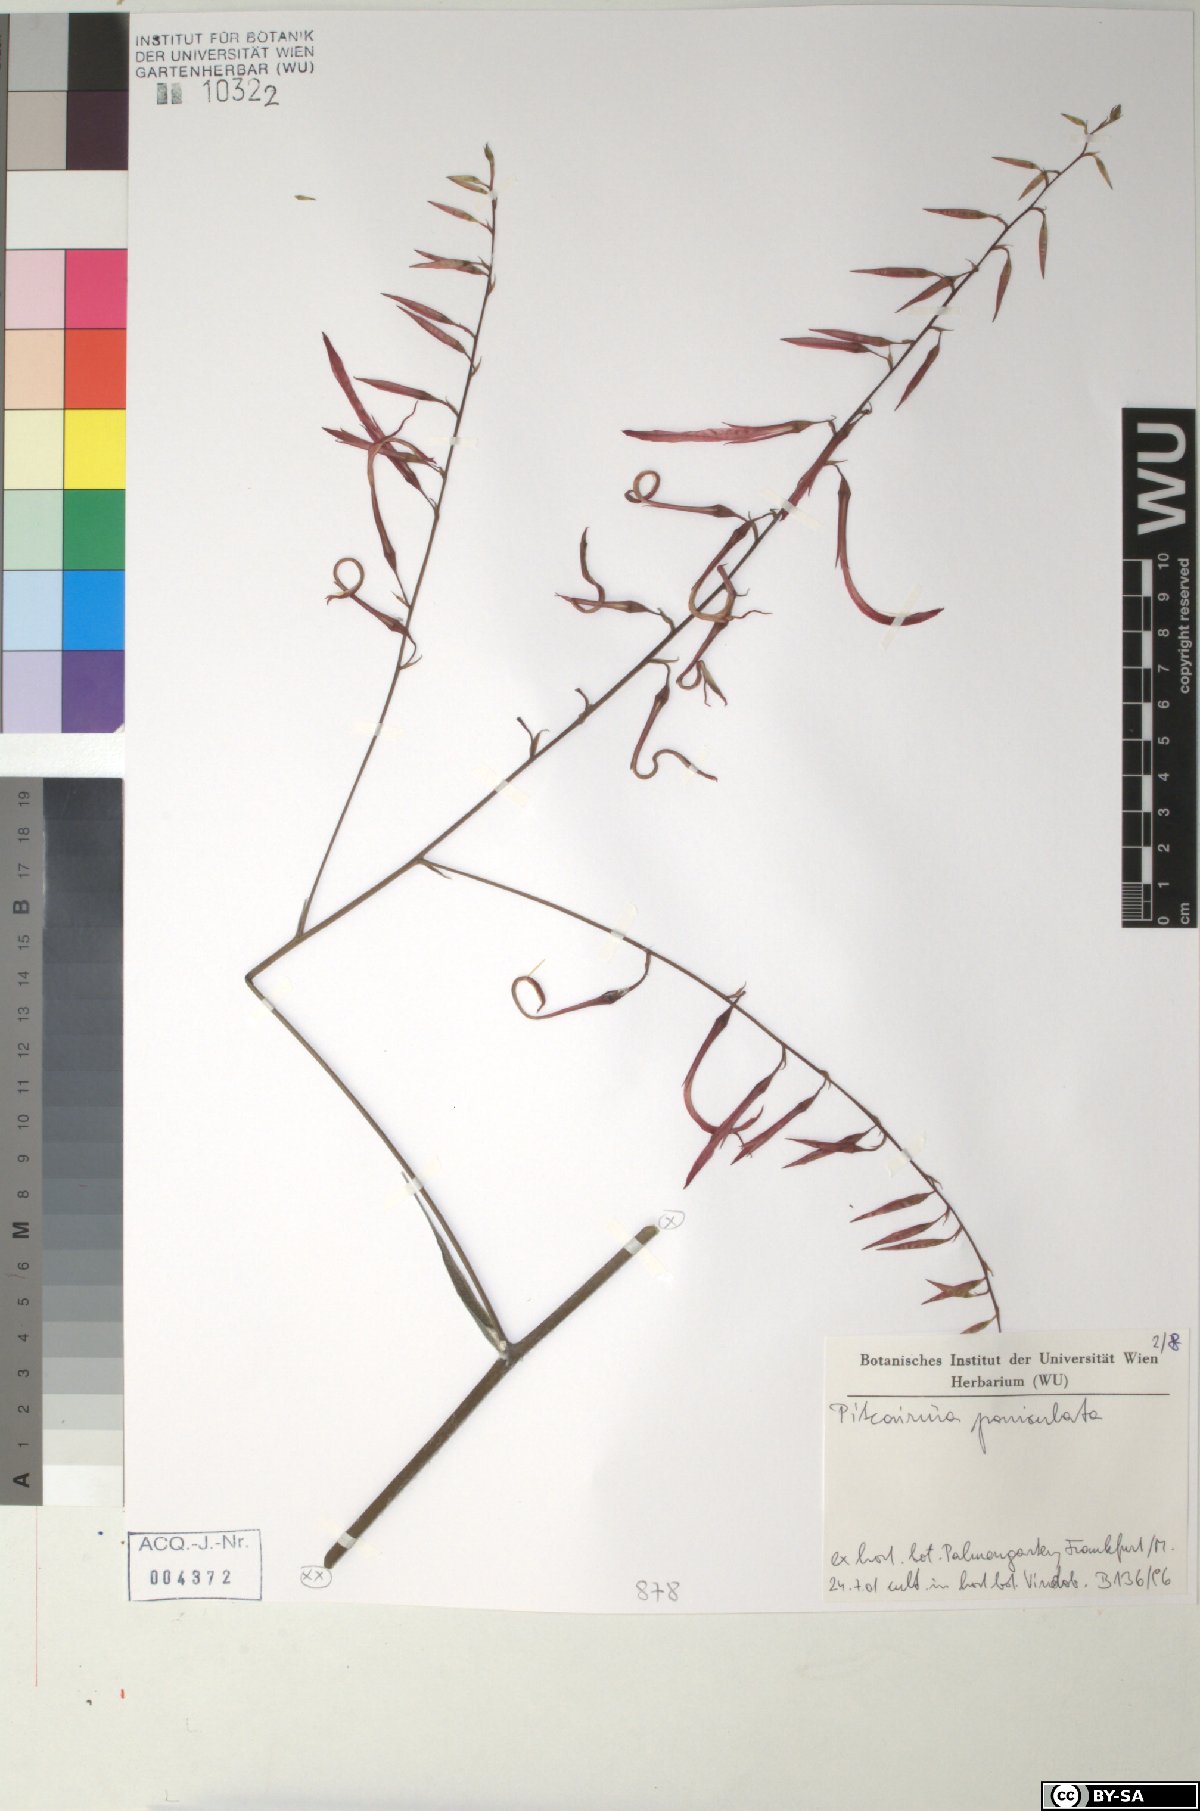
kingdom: Plantae
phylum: Tracheophyta
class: Liliopsida
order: Poales
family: Bromeliaceae
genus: Pitcairnia
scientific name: Pitcairnia paniculata
